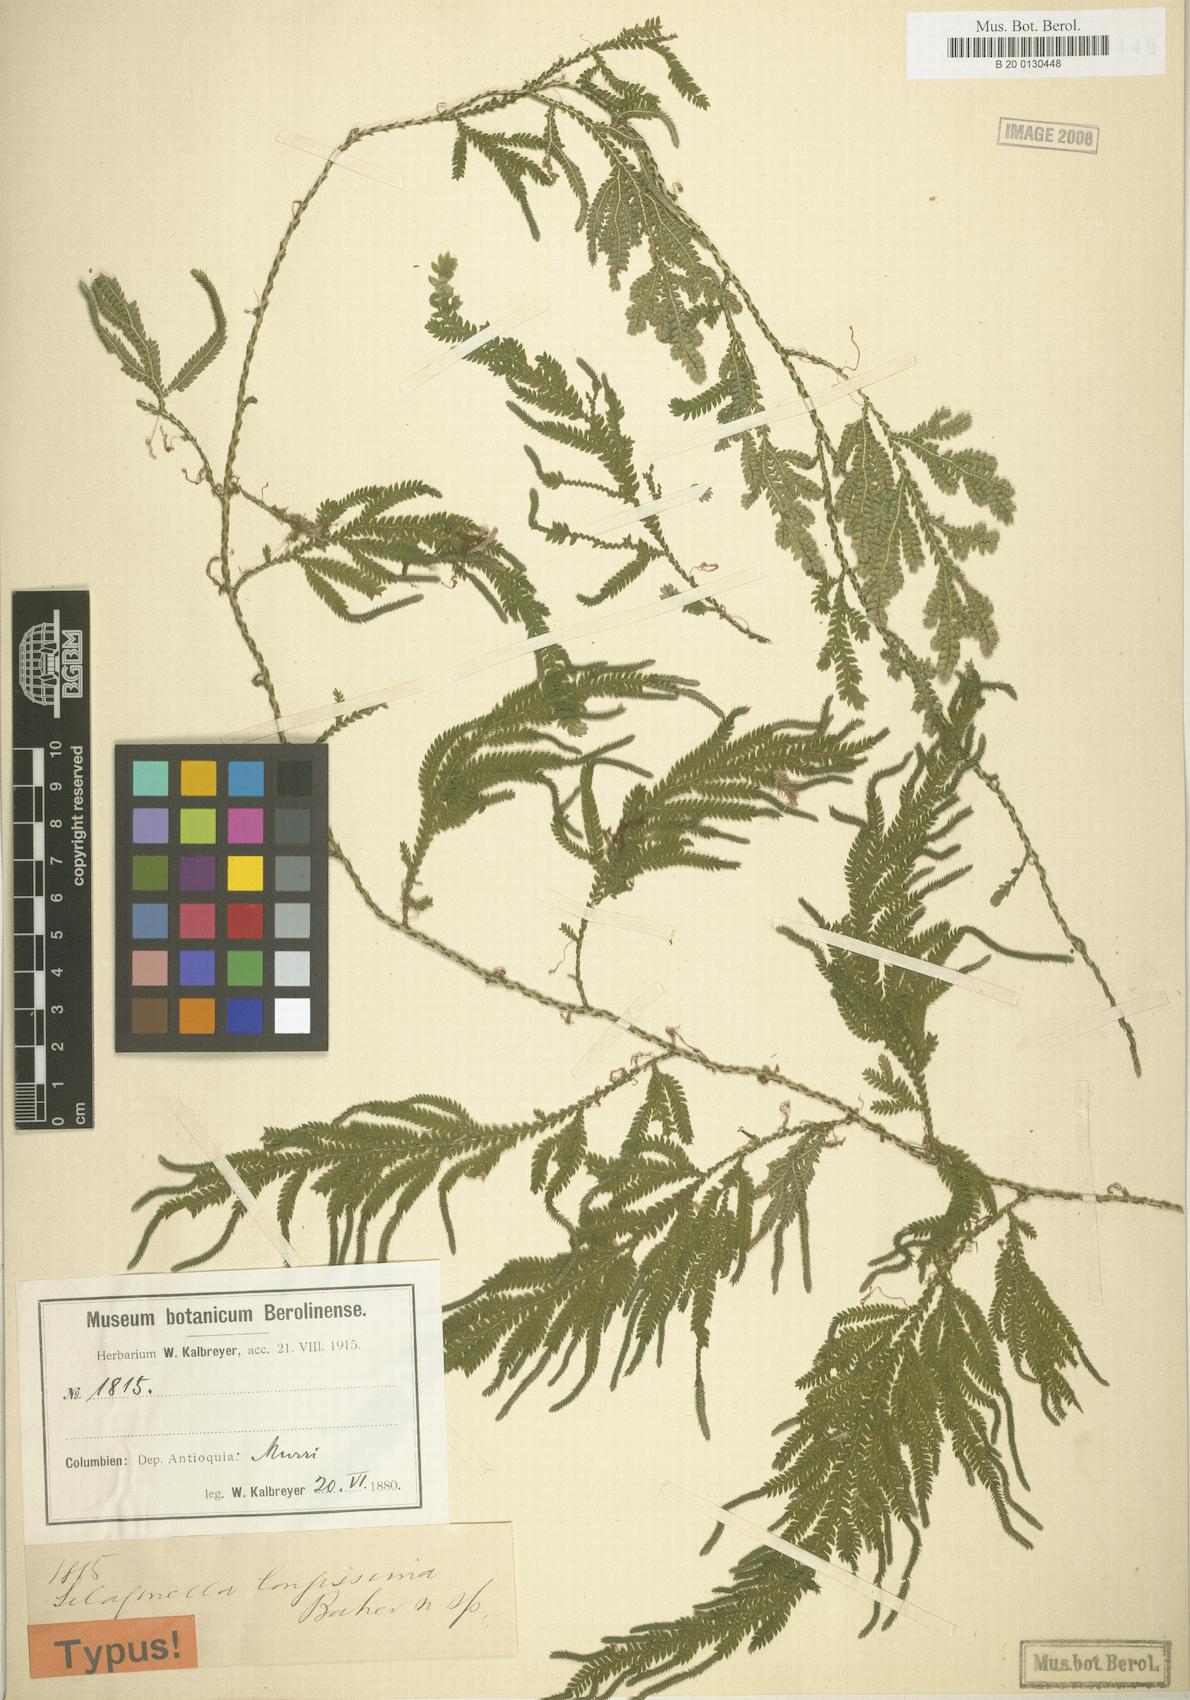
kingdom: Plantae
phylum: Tracheophyta
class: Lycopodiopsida
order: Selaginellales
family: Selaginellaceae
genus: Selaginella
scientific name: Selaginella longissima
